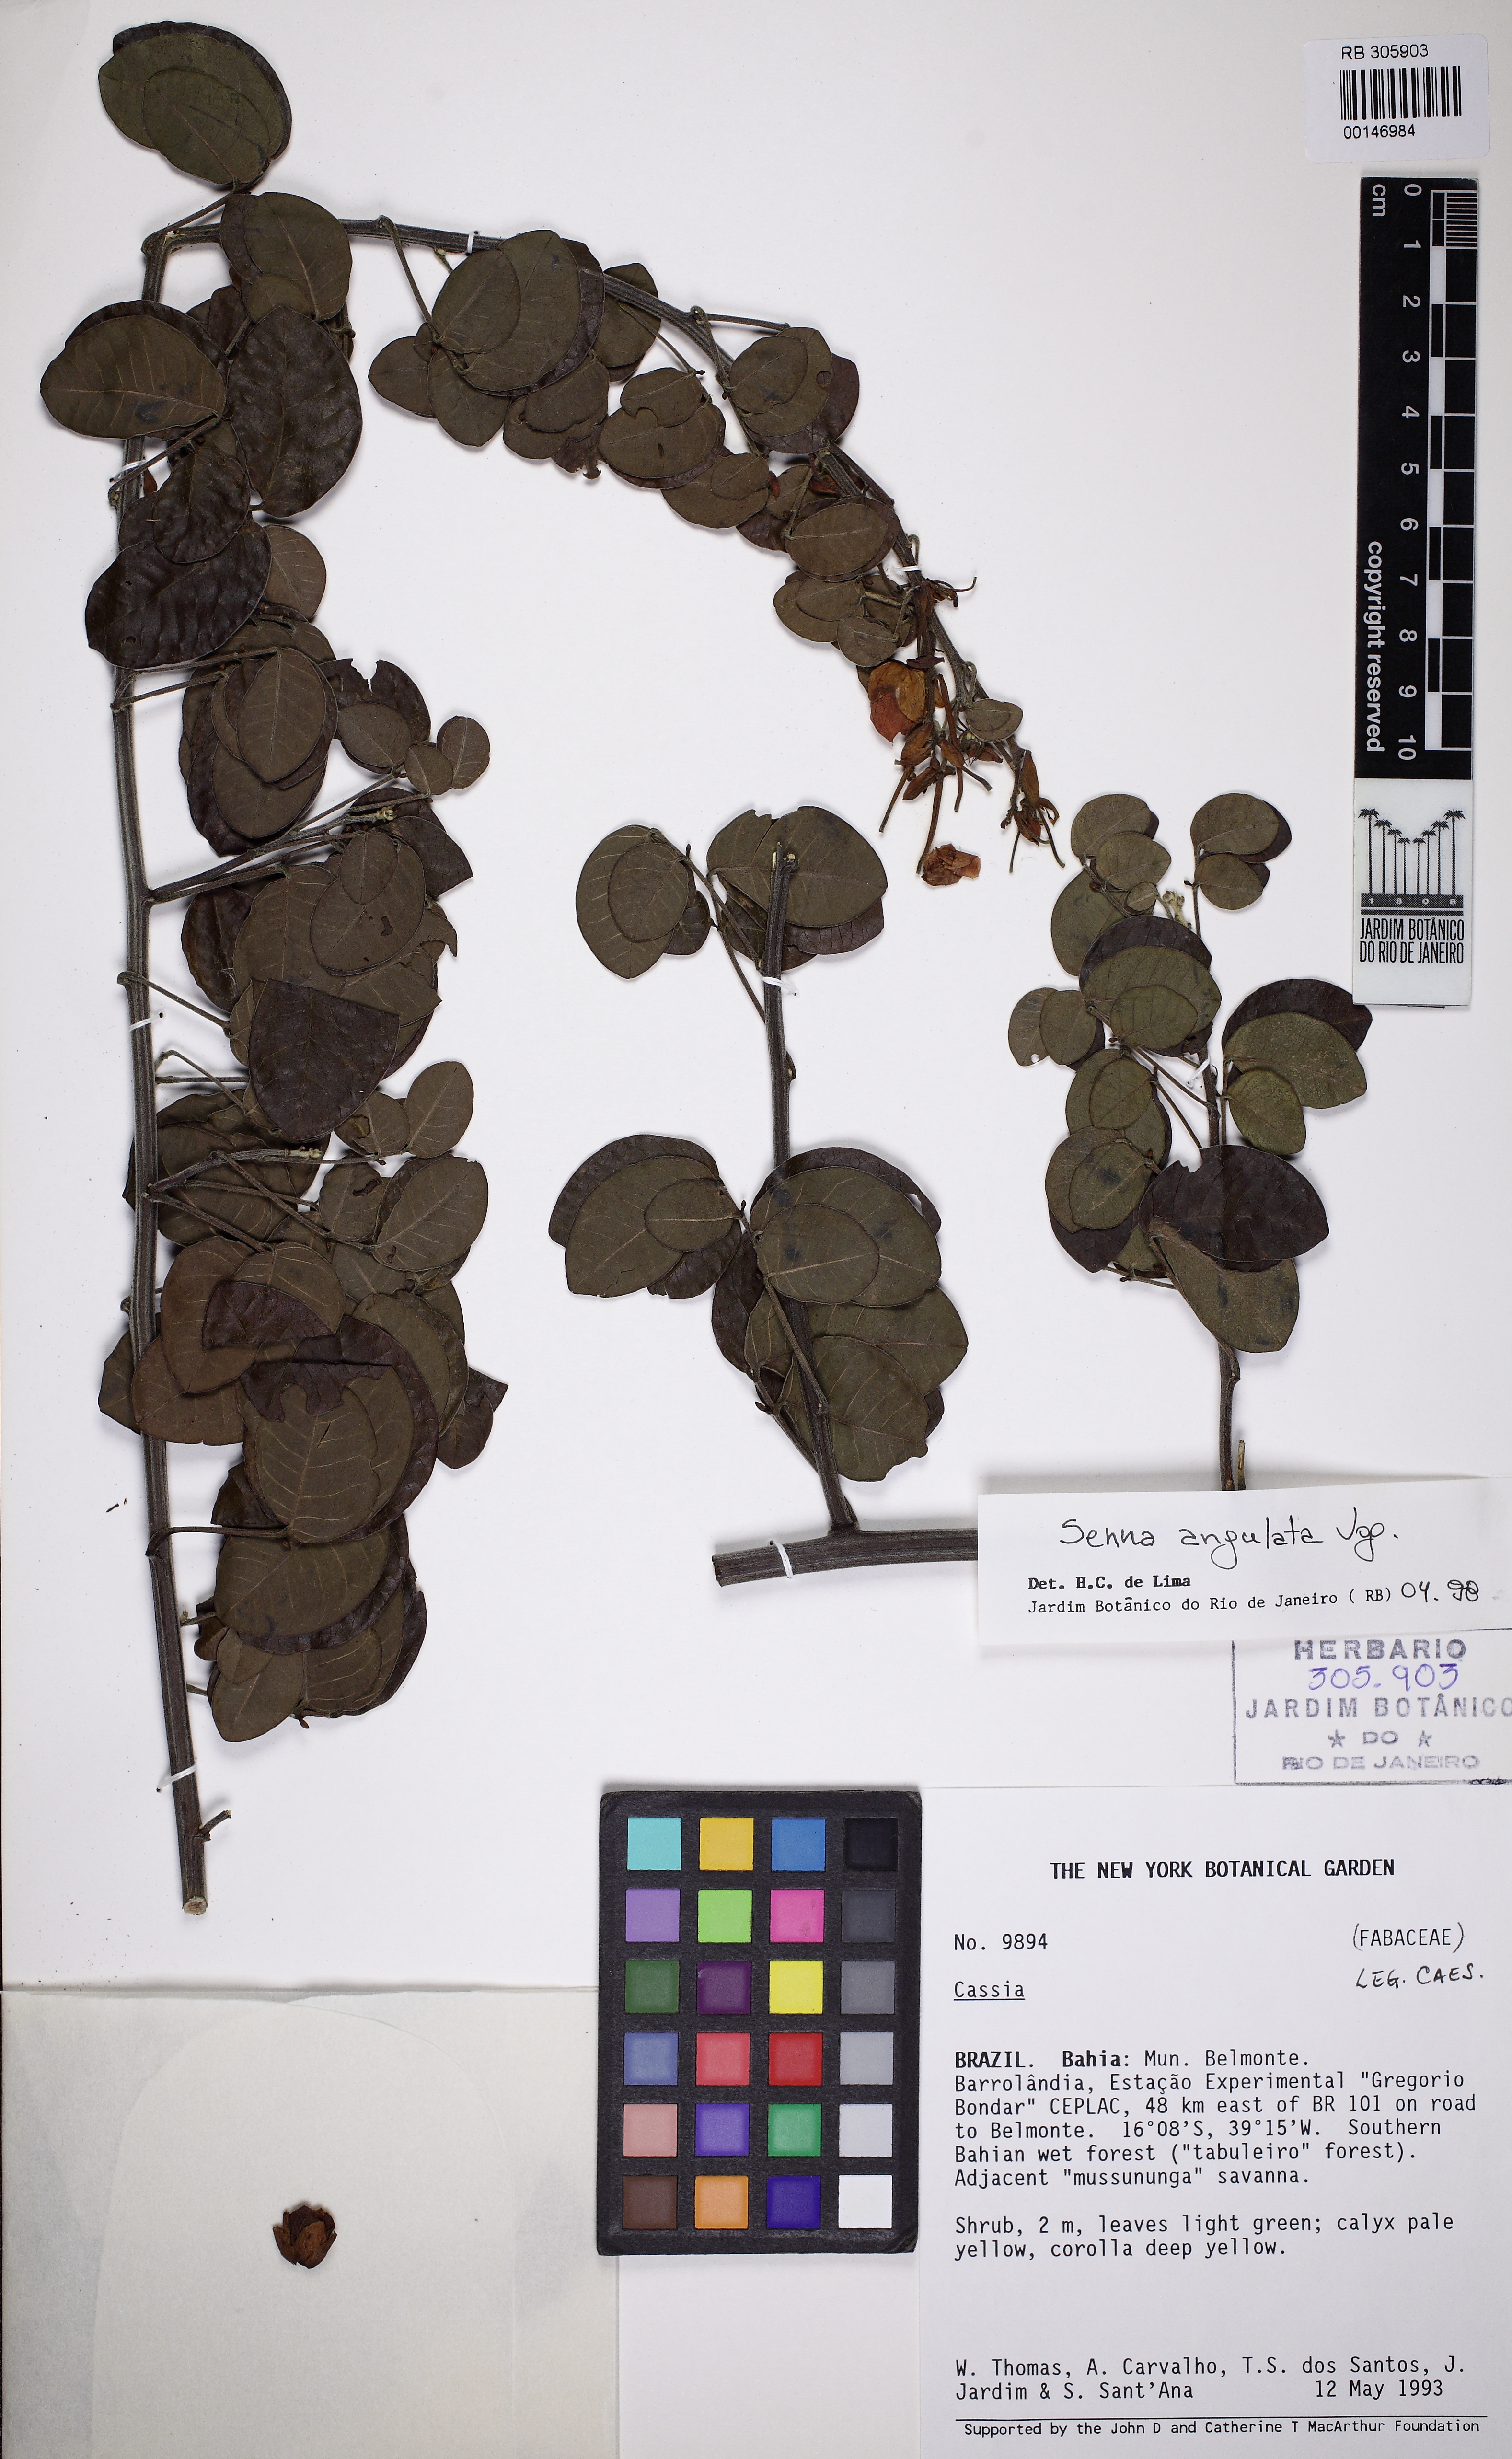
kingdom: Plantae
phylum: Tracheophyta
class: Magnoliopsida
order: Fabales
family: Fabaceae
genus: Senna
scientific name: Senna angulata
